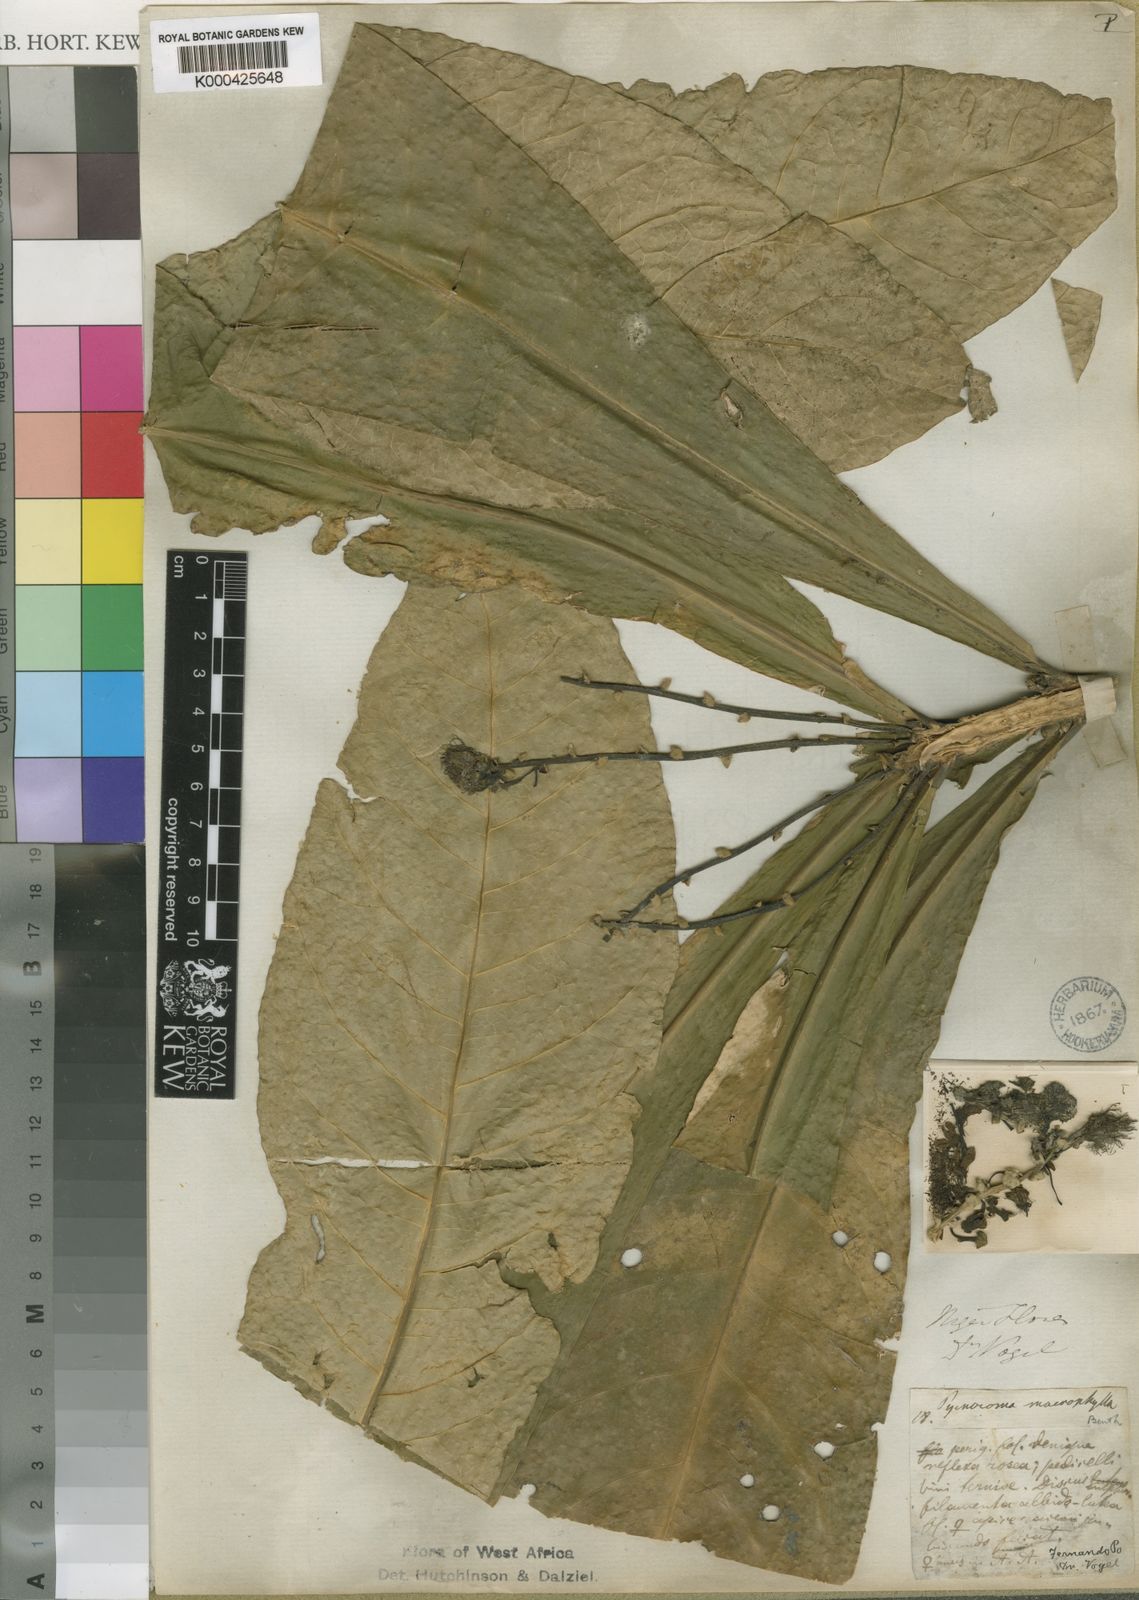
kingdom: Plantae
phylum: Tracheophyta
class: Magnoliopsida
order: Malpighiales
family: Euphorbiaceae
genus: Pycnocoma
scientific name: Pycnocoma macrophylla
